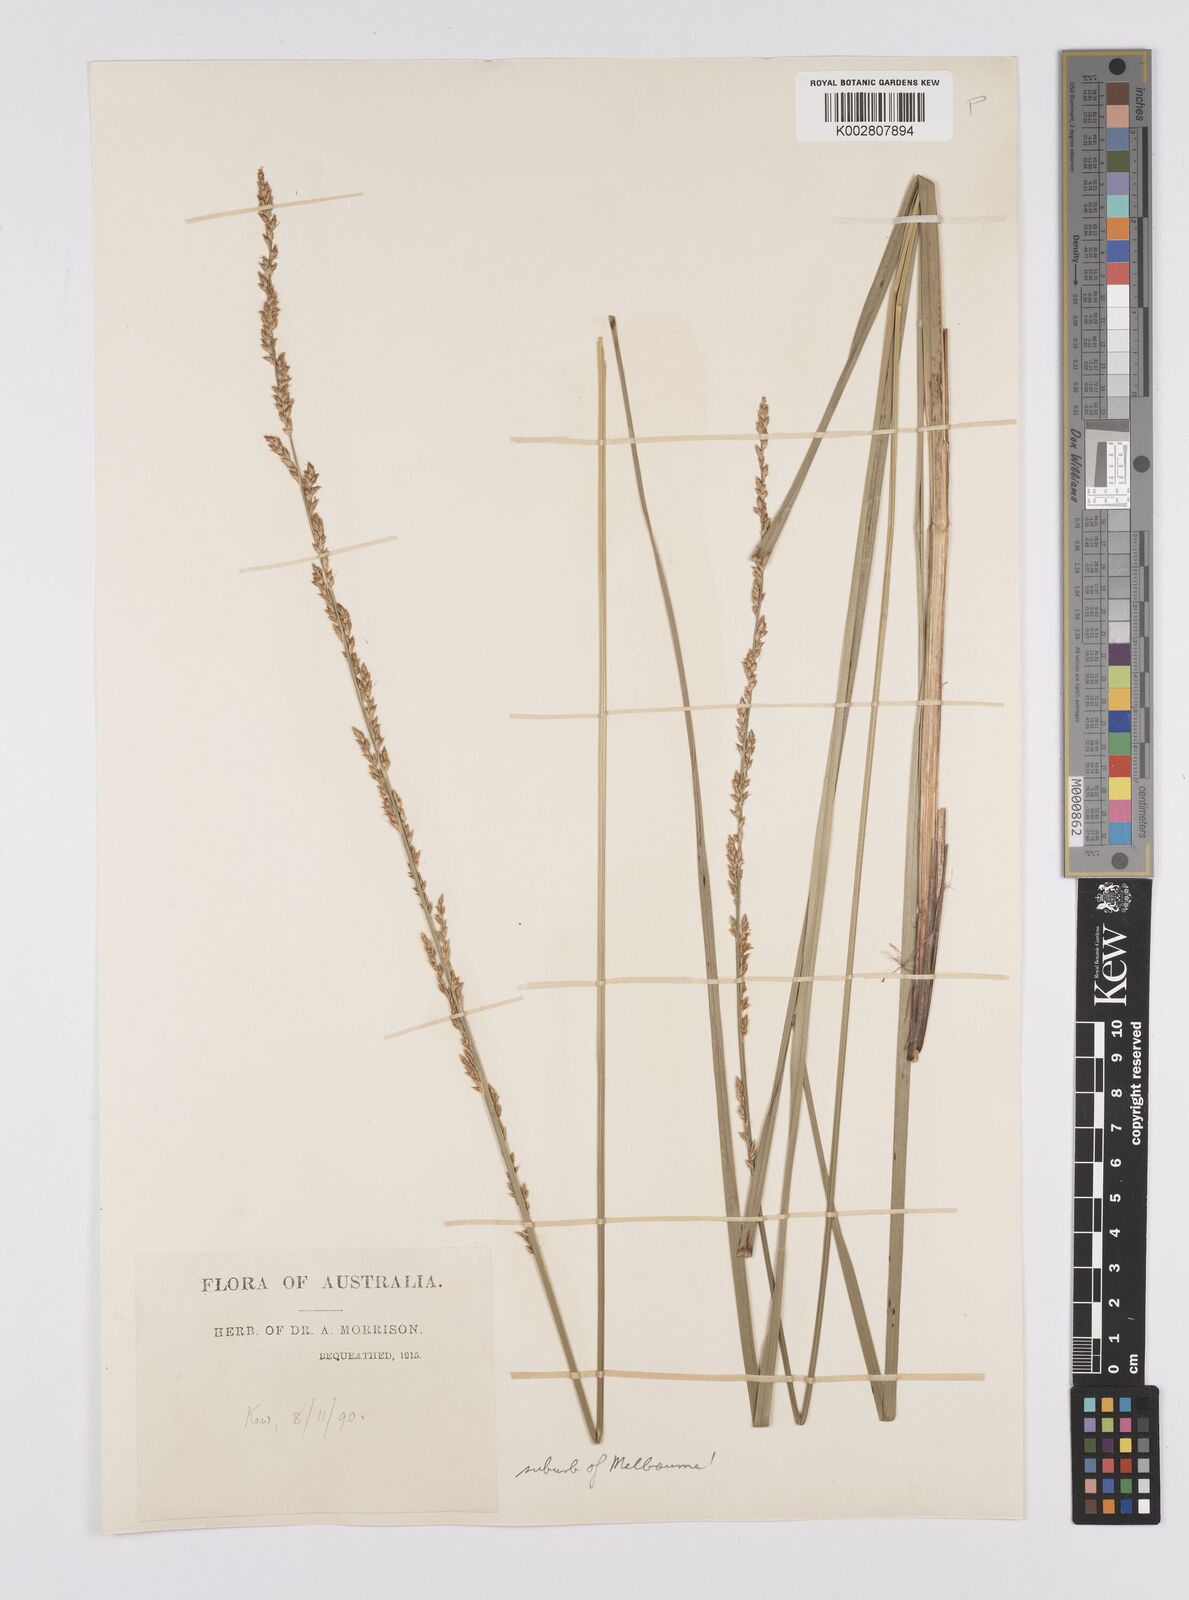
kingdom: Plantae
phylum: Tracheophyta
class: Liliopsida
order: Poales
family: Cyperaceae
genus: Carex
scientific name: Carex appressa
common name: Tussock sedge
